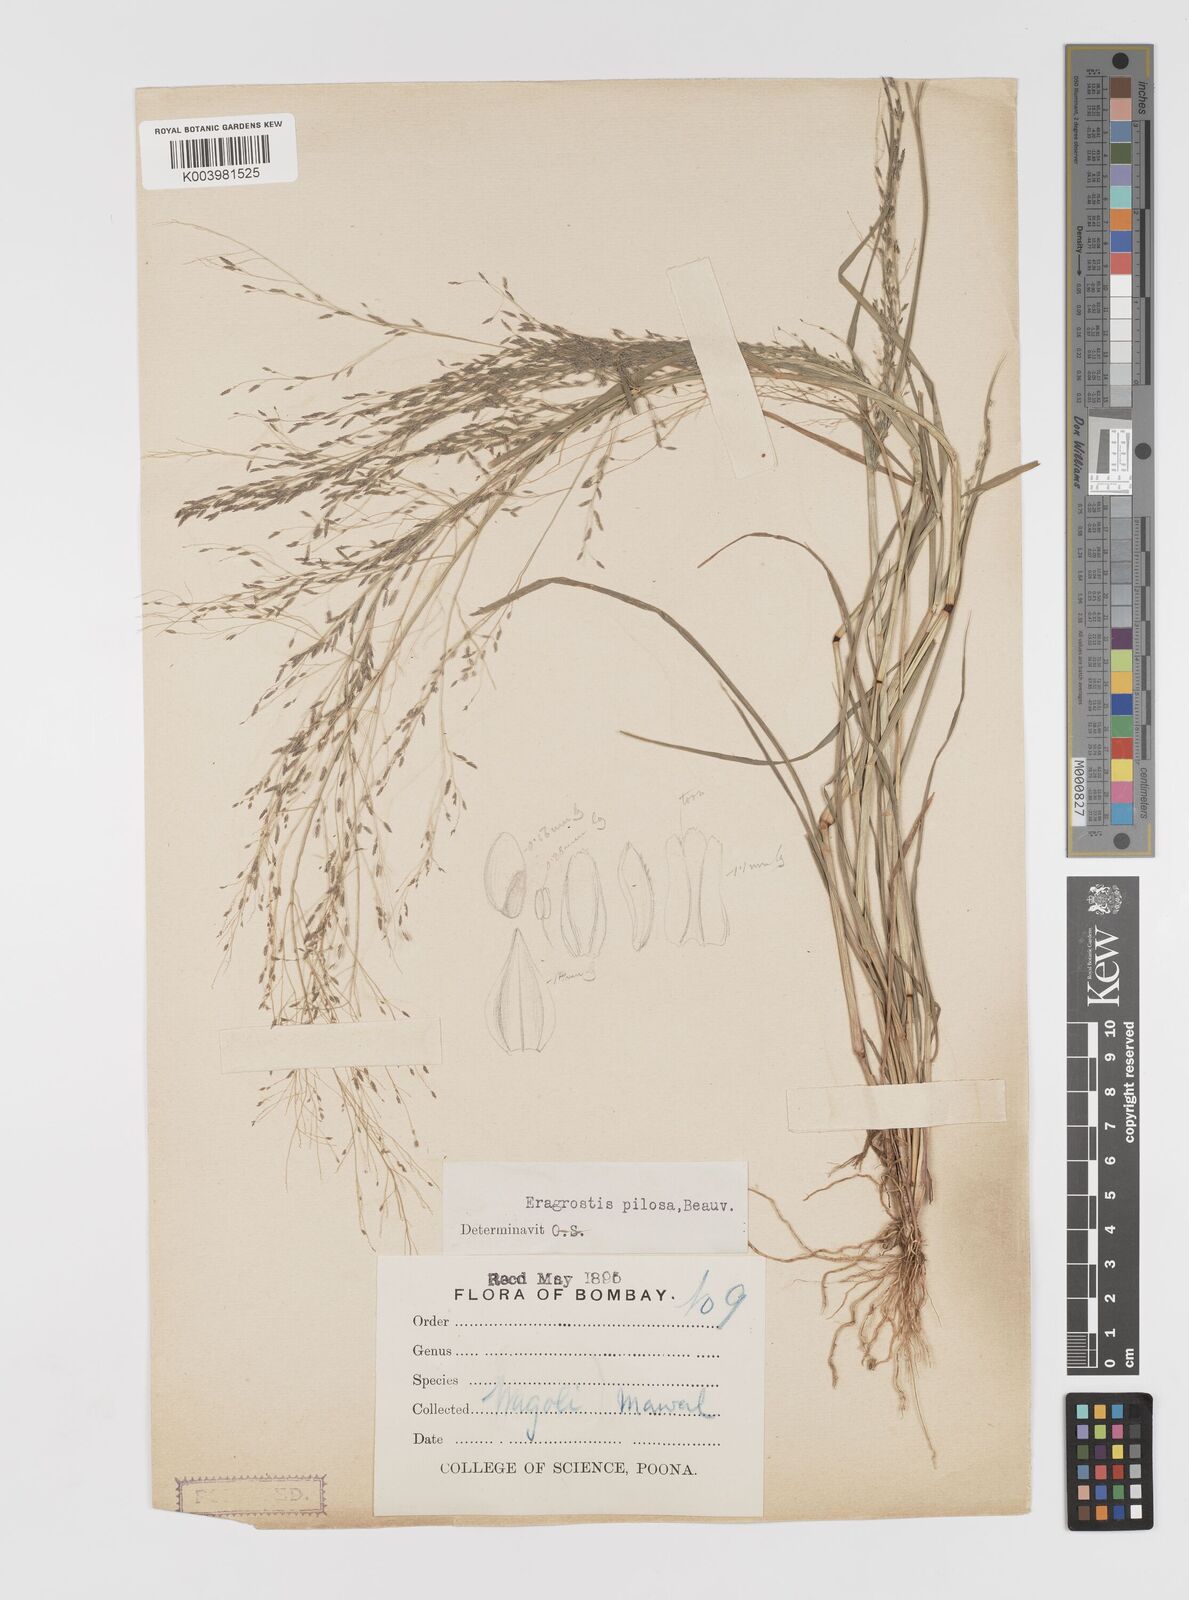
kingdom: Plantae
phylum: Tracheophyta
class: Liliopsida
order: Poales
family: Poaceae
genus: Eragrostis
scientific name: Eragrostis pilosa
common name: Indian lovegrass
